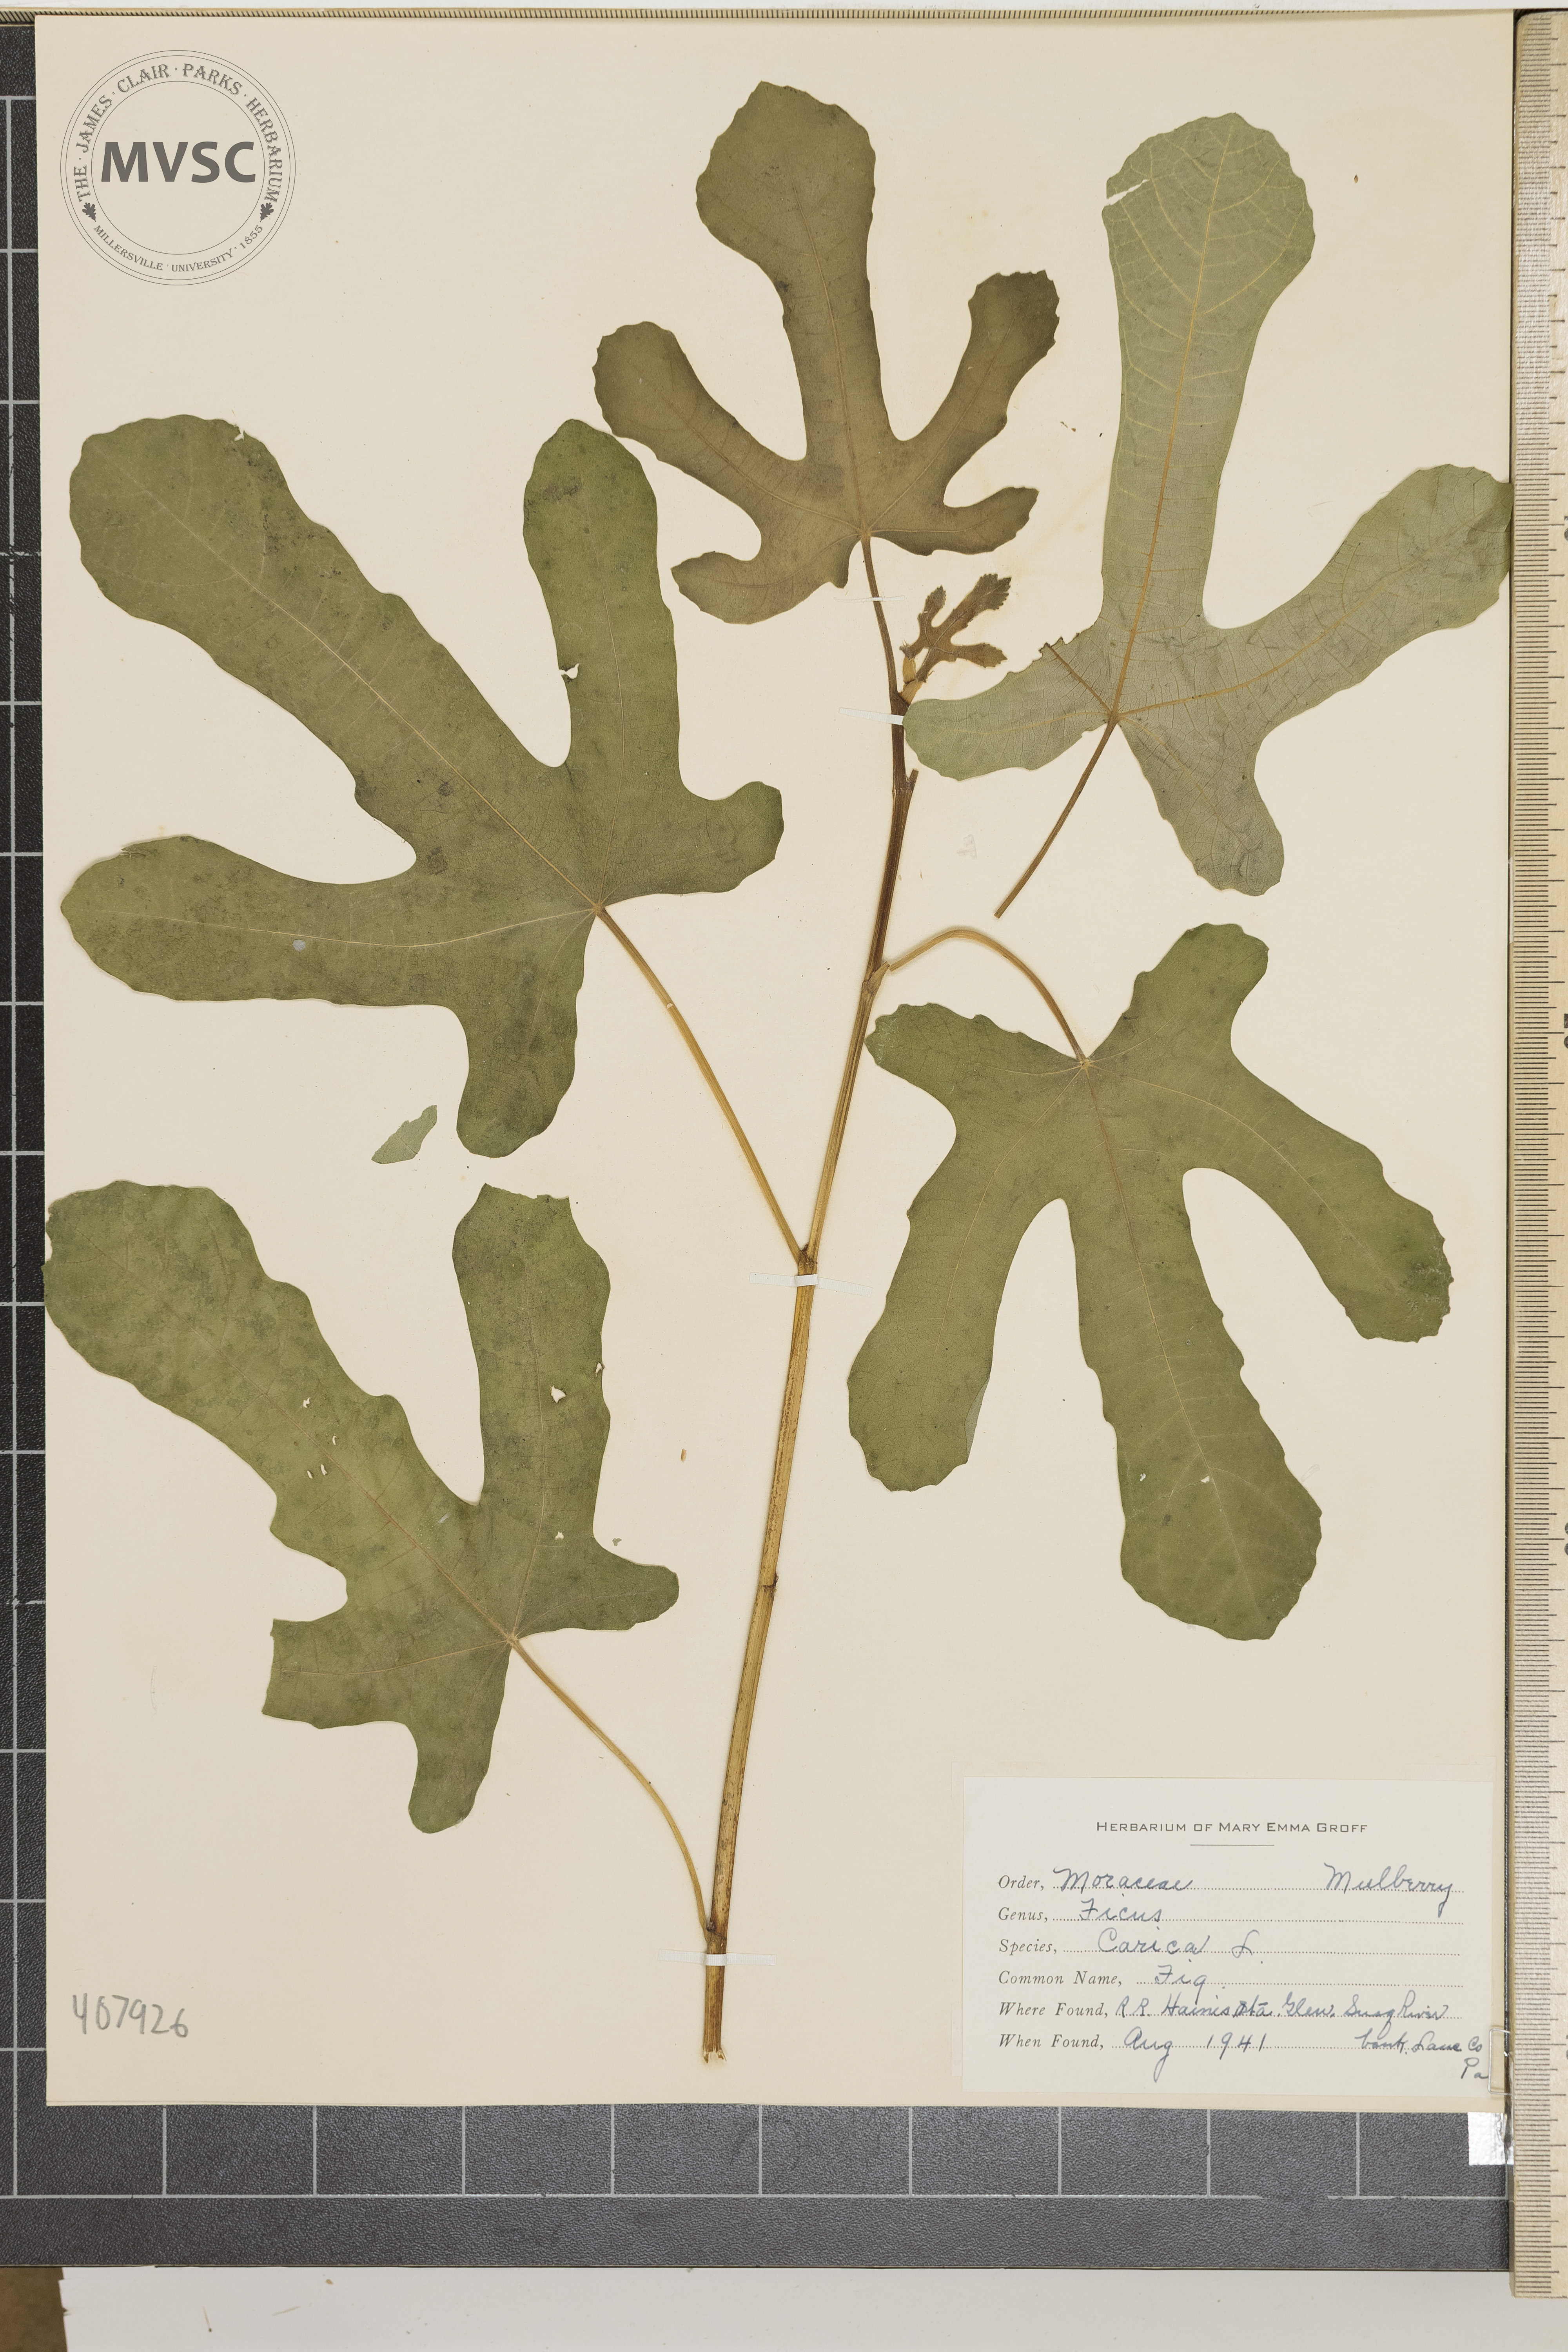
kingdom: Plantae
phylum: Tracheophyta
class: Magnoliopsida
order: Rosales
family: Moraceae
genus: Ficus
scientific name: Ficus carica
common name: Fig
